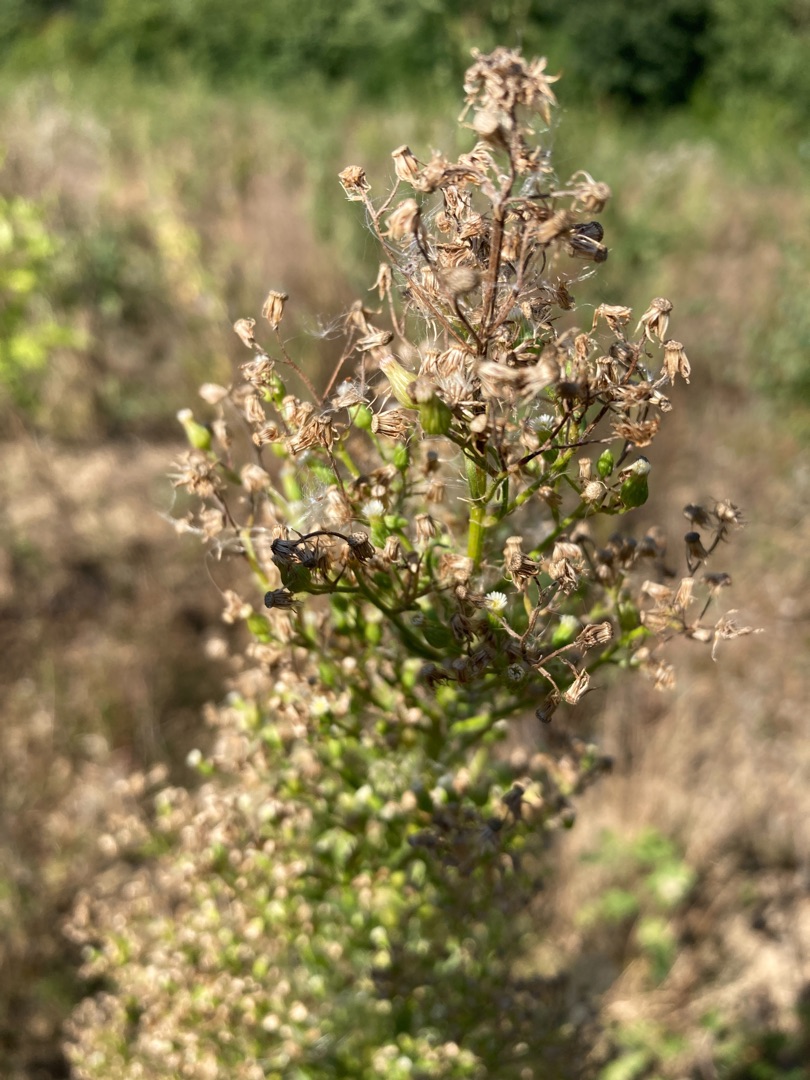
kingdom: Plantae
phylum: Tracheophyta
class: Magnoliopsida
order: Asterales
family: Asteraceae
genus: Erigeron
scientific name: Erigeron canadensis
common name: Kanadisk bakkestjerne
